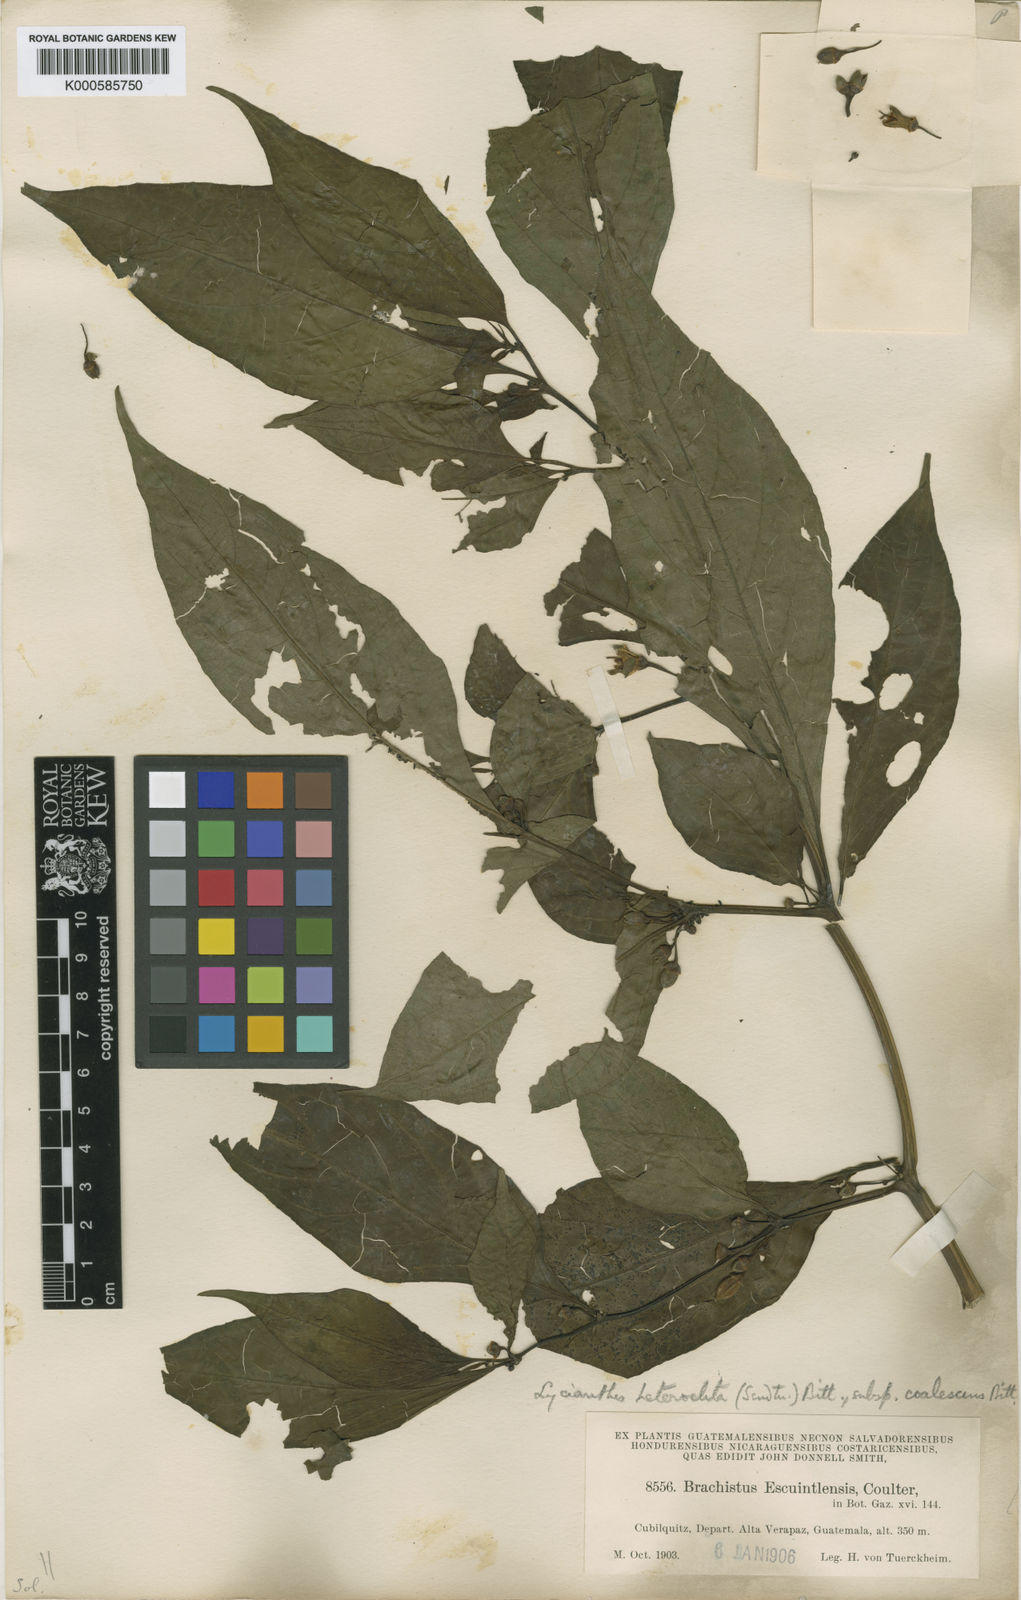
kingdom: Plantae
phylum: Tracheophyta
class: Magnoliopsida
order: Solanales
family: Solanaceae
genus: Lycianthes
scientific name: Lycianthes heteroclita
